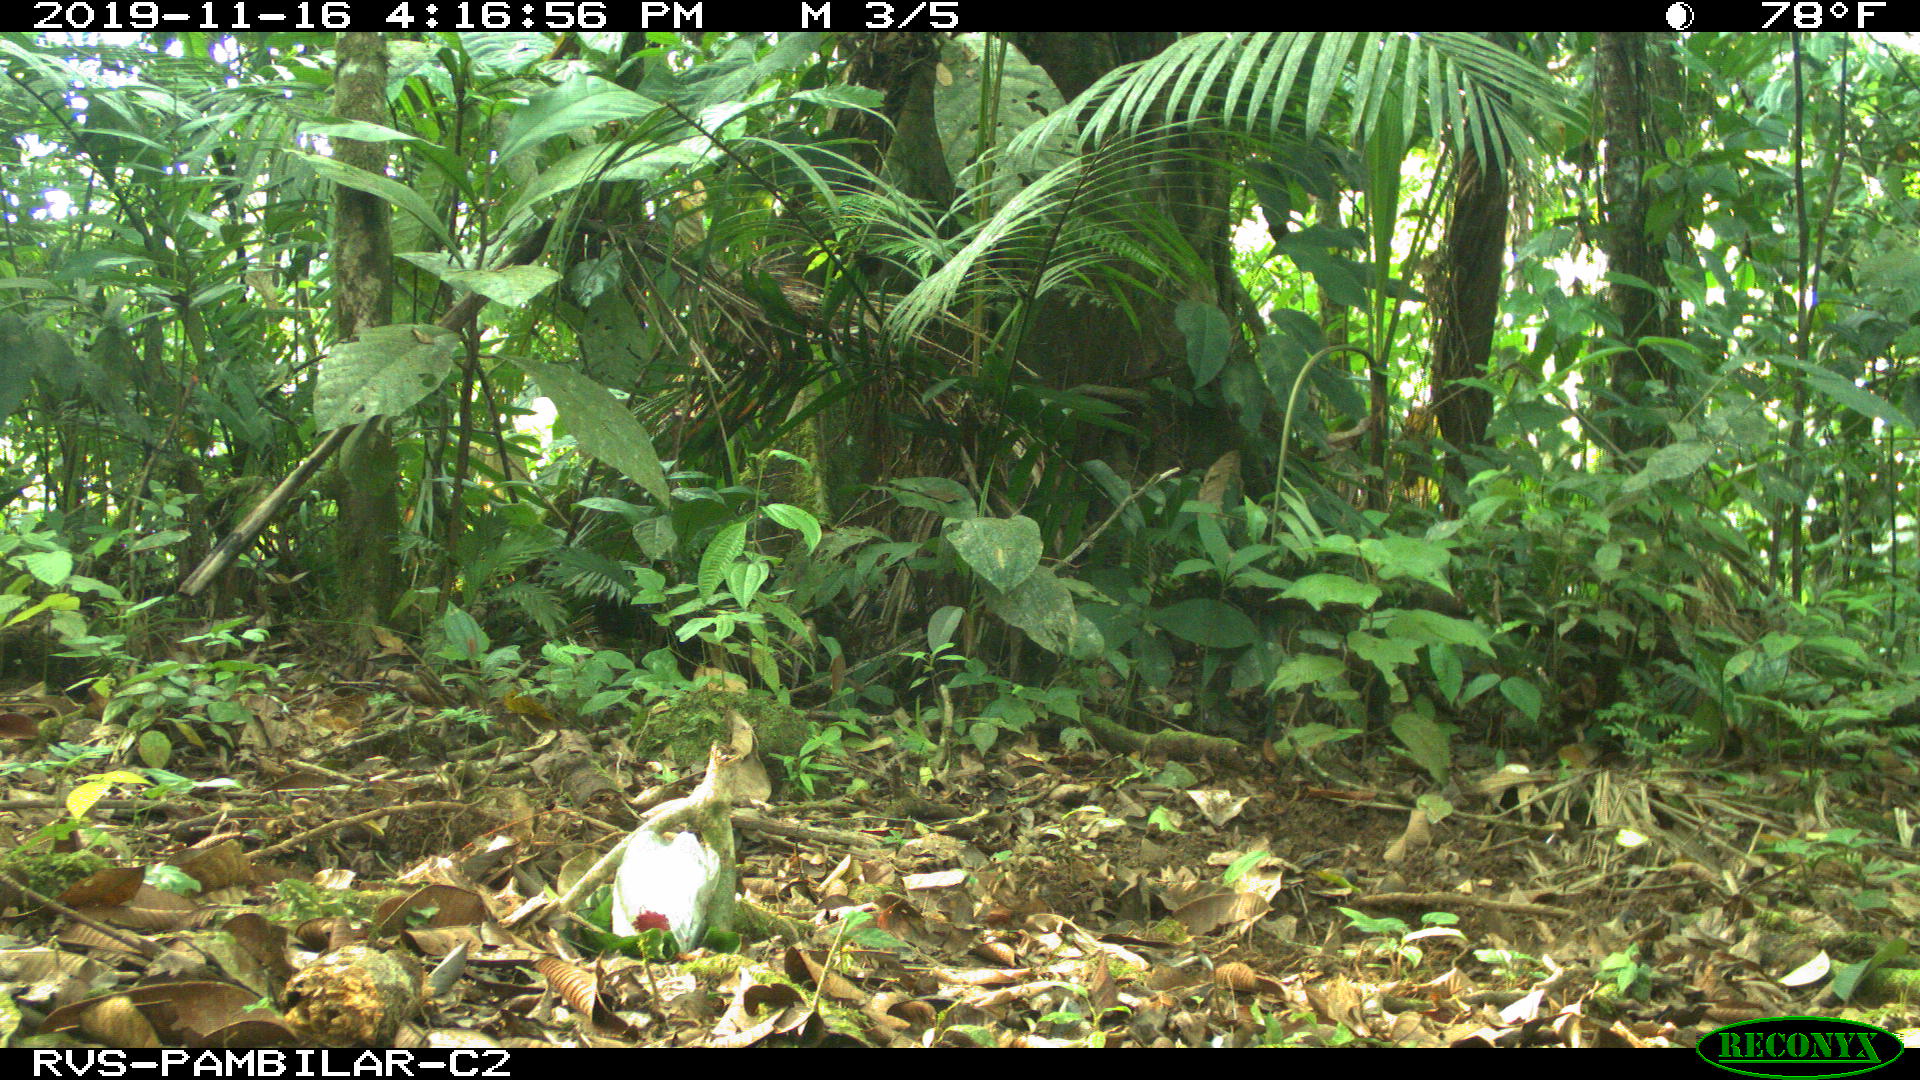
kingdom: Animalia
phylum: Chordata
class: Mammalia
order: Carnivora
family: Felidae
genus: Leopardus
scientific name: Leopardus pardalis
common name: Ocelot
